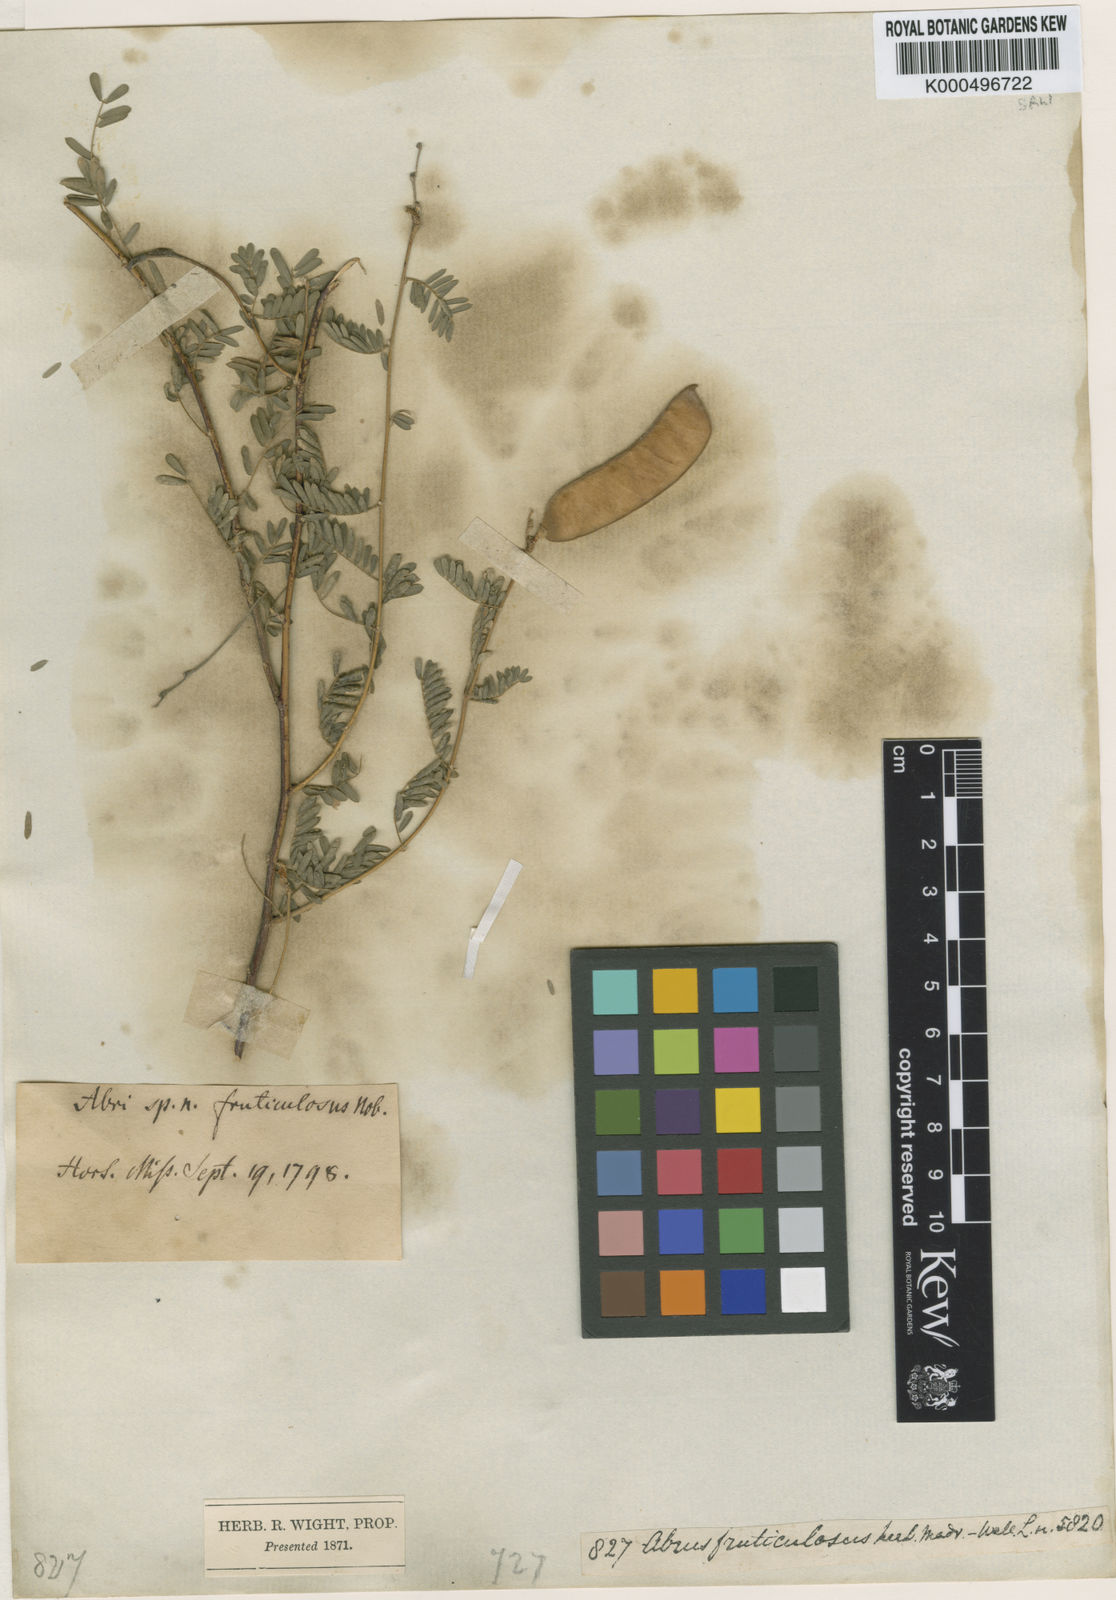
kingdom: Plantae
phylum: Tracheophyta
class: Magnoliopsida
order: Fabales
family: Fabaceae
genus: Abrus
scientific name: Abrus fruticulosus
